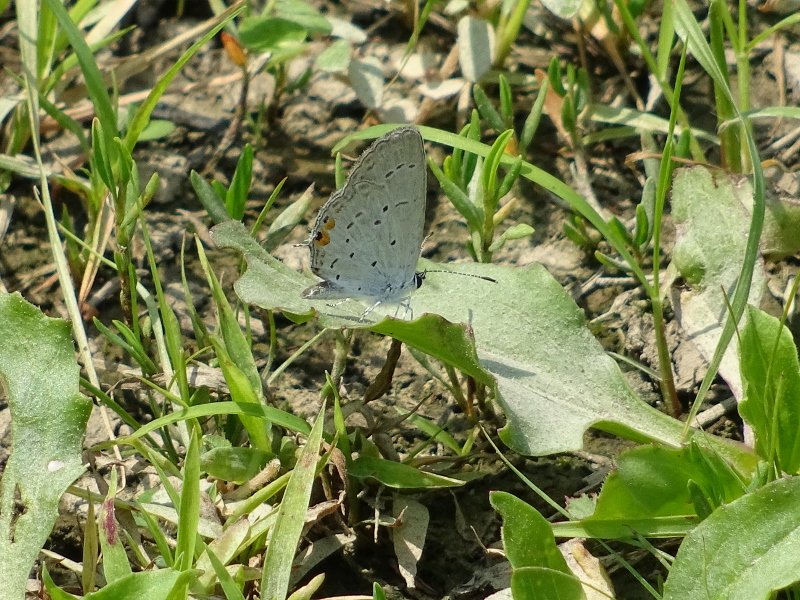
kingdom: Animalia
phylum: Arthropoda
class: Insecta
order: Lepidoptera
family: Lycaenidae
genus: Elkalyce
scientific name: Elkalyce comyntas
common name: Eastern Tailed-Blue
